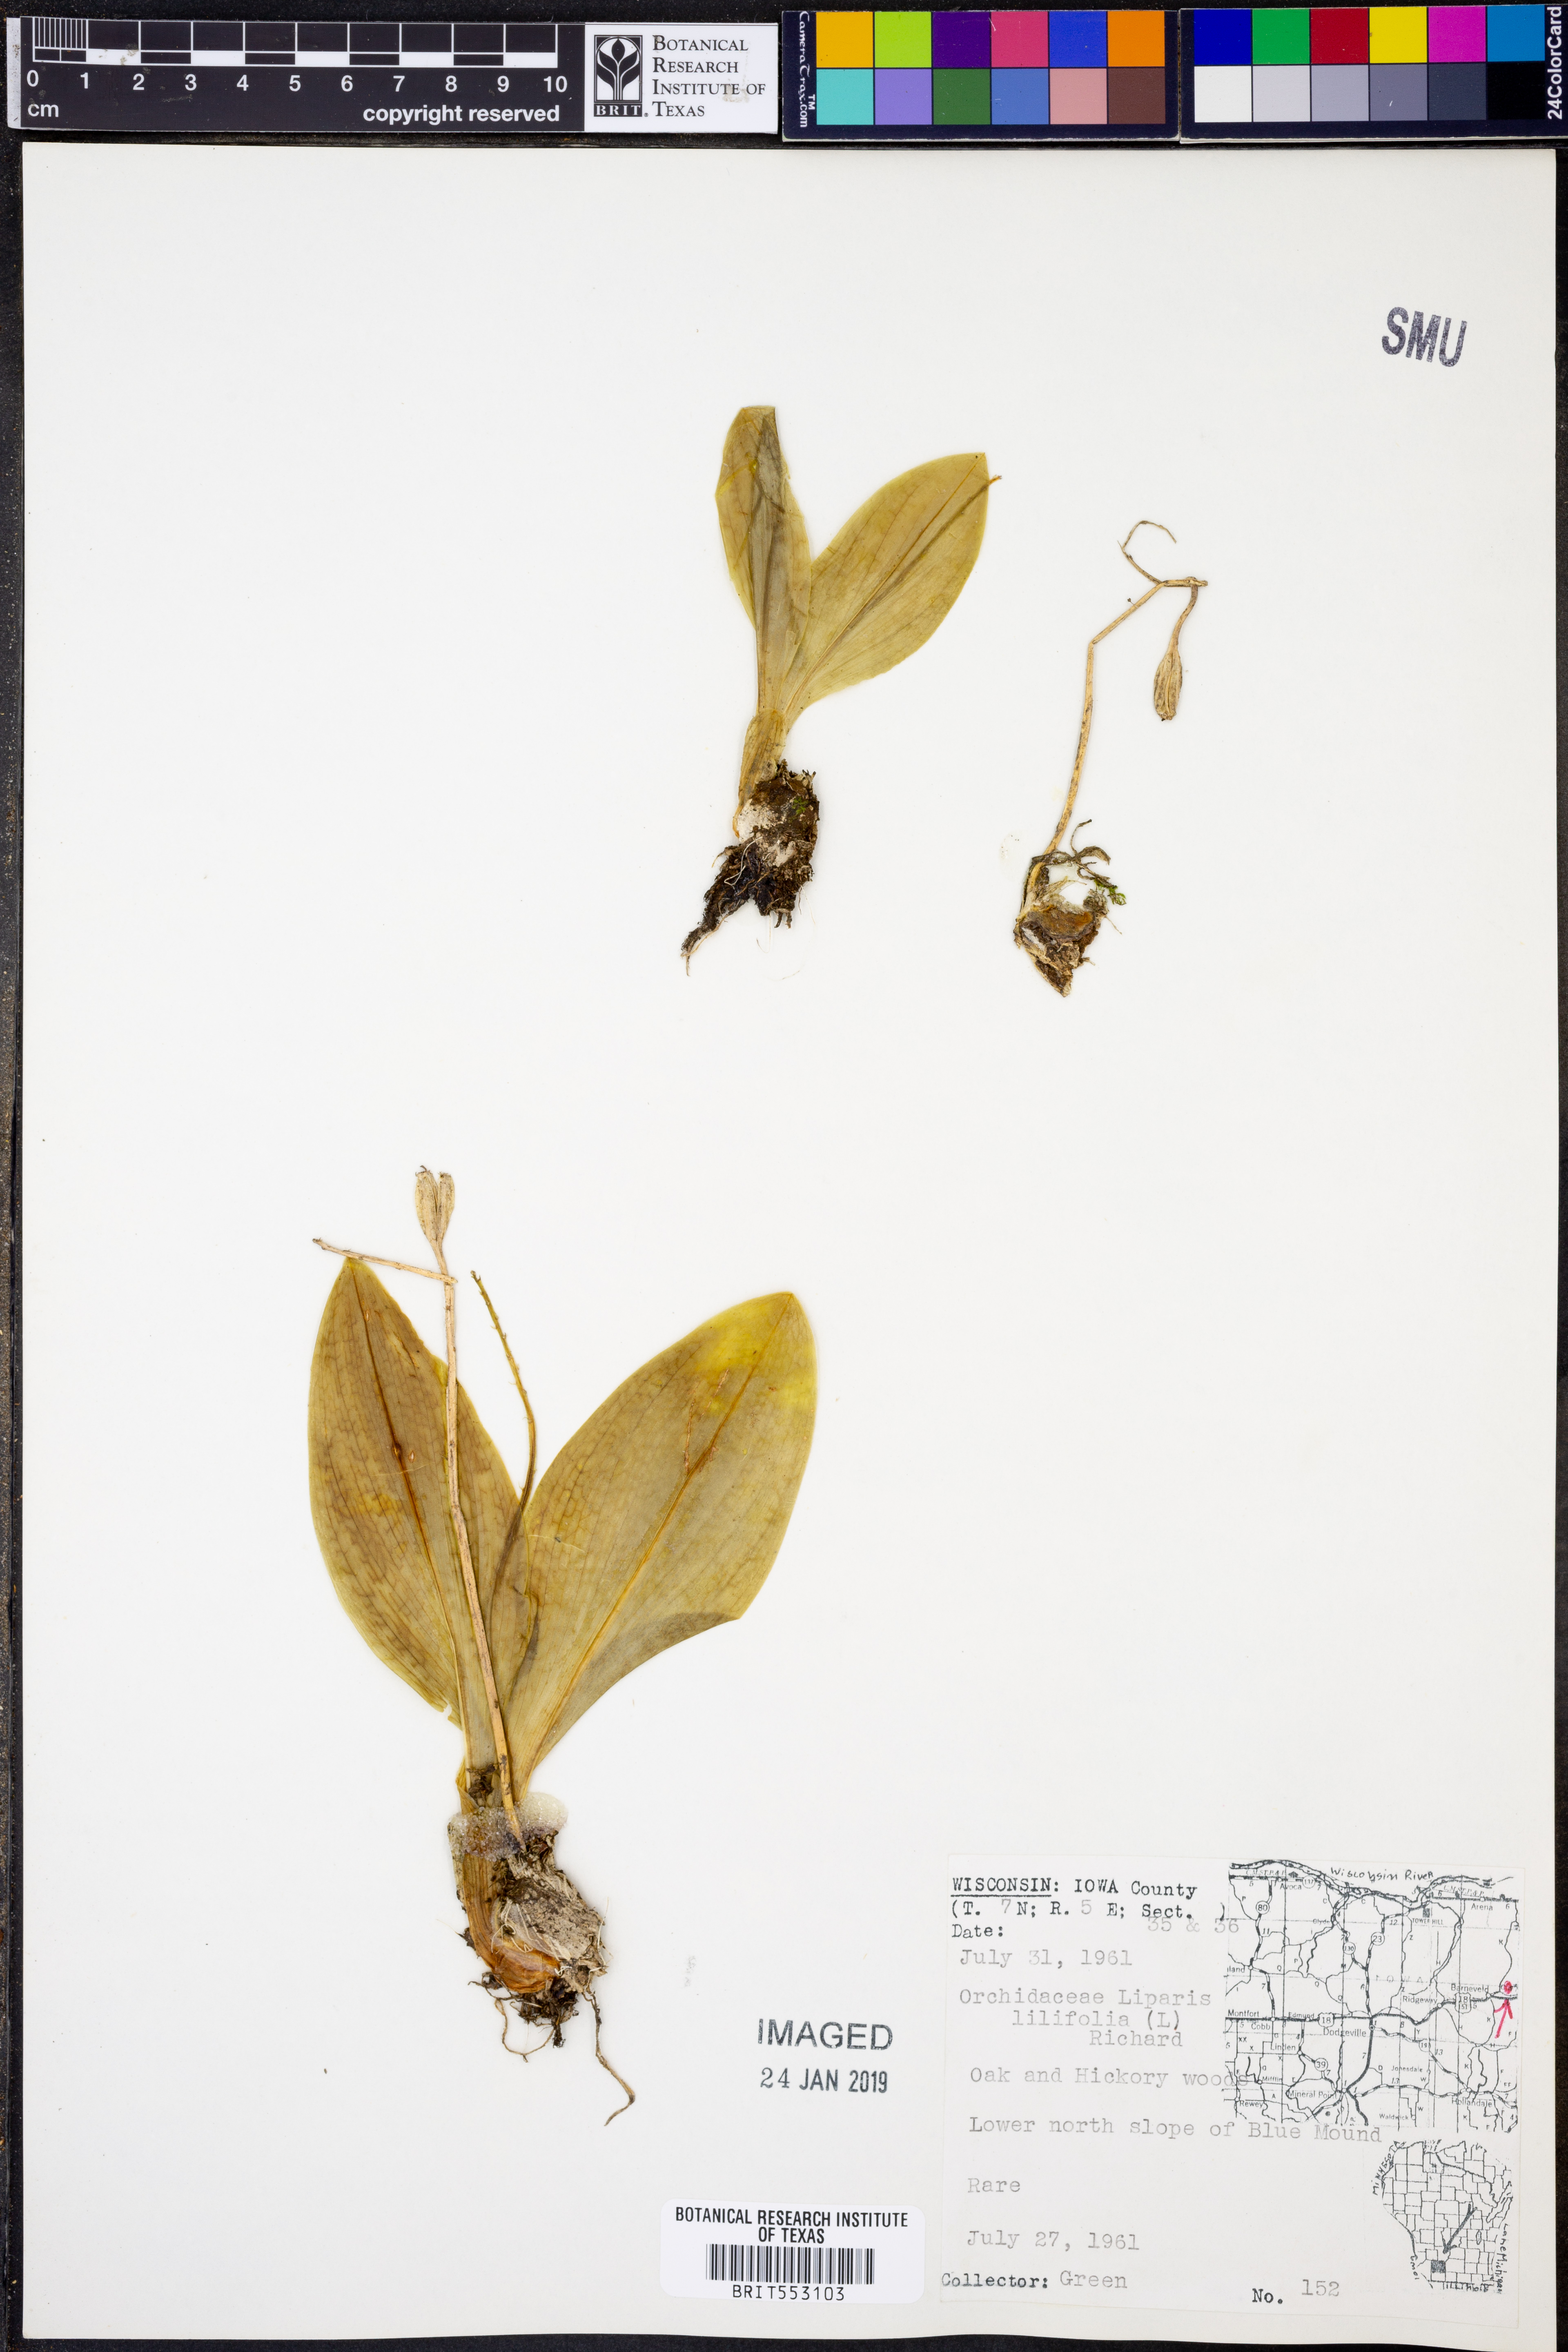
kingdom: Plantae
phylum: Tracheophyta
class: Liliopsida
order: Asparagales
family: Orchidaceae
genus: Liparis
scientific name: Liparis liliifolia
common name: Brown wide-lip orchid
